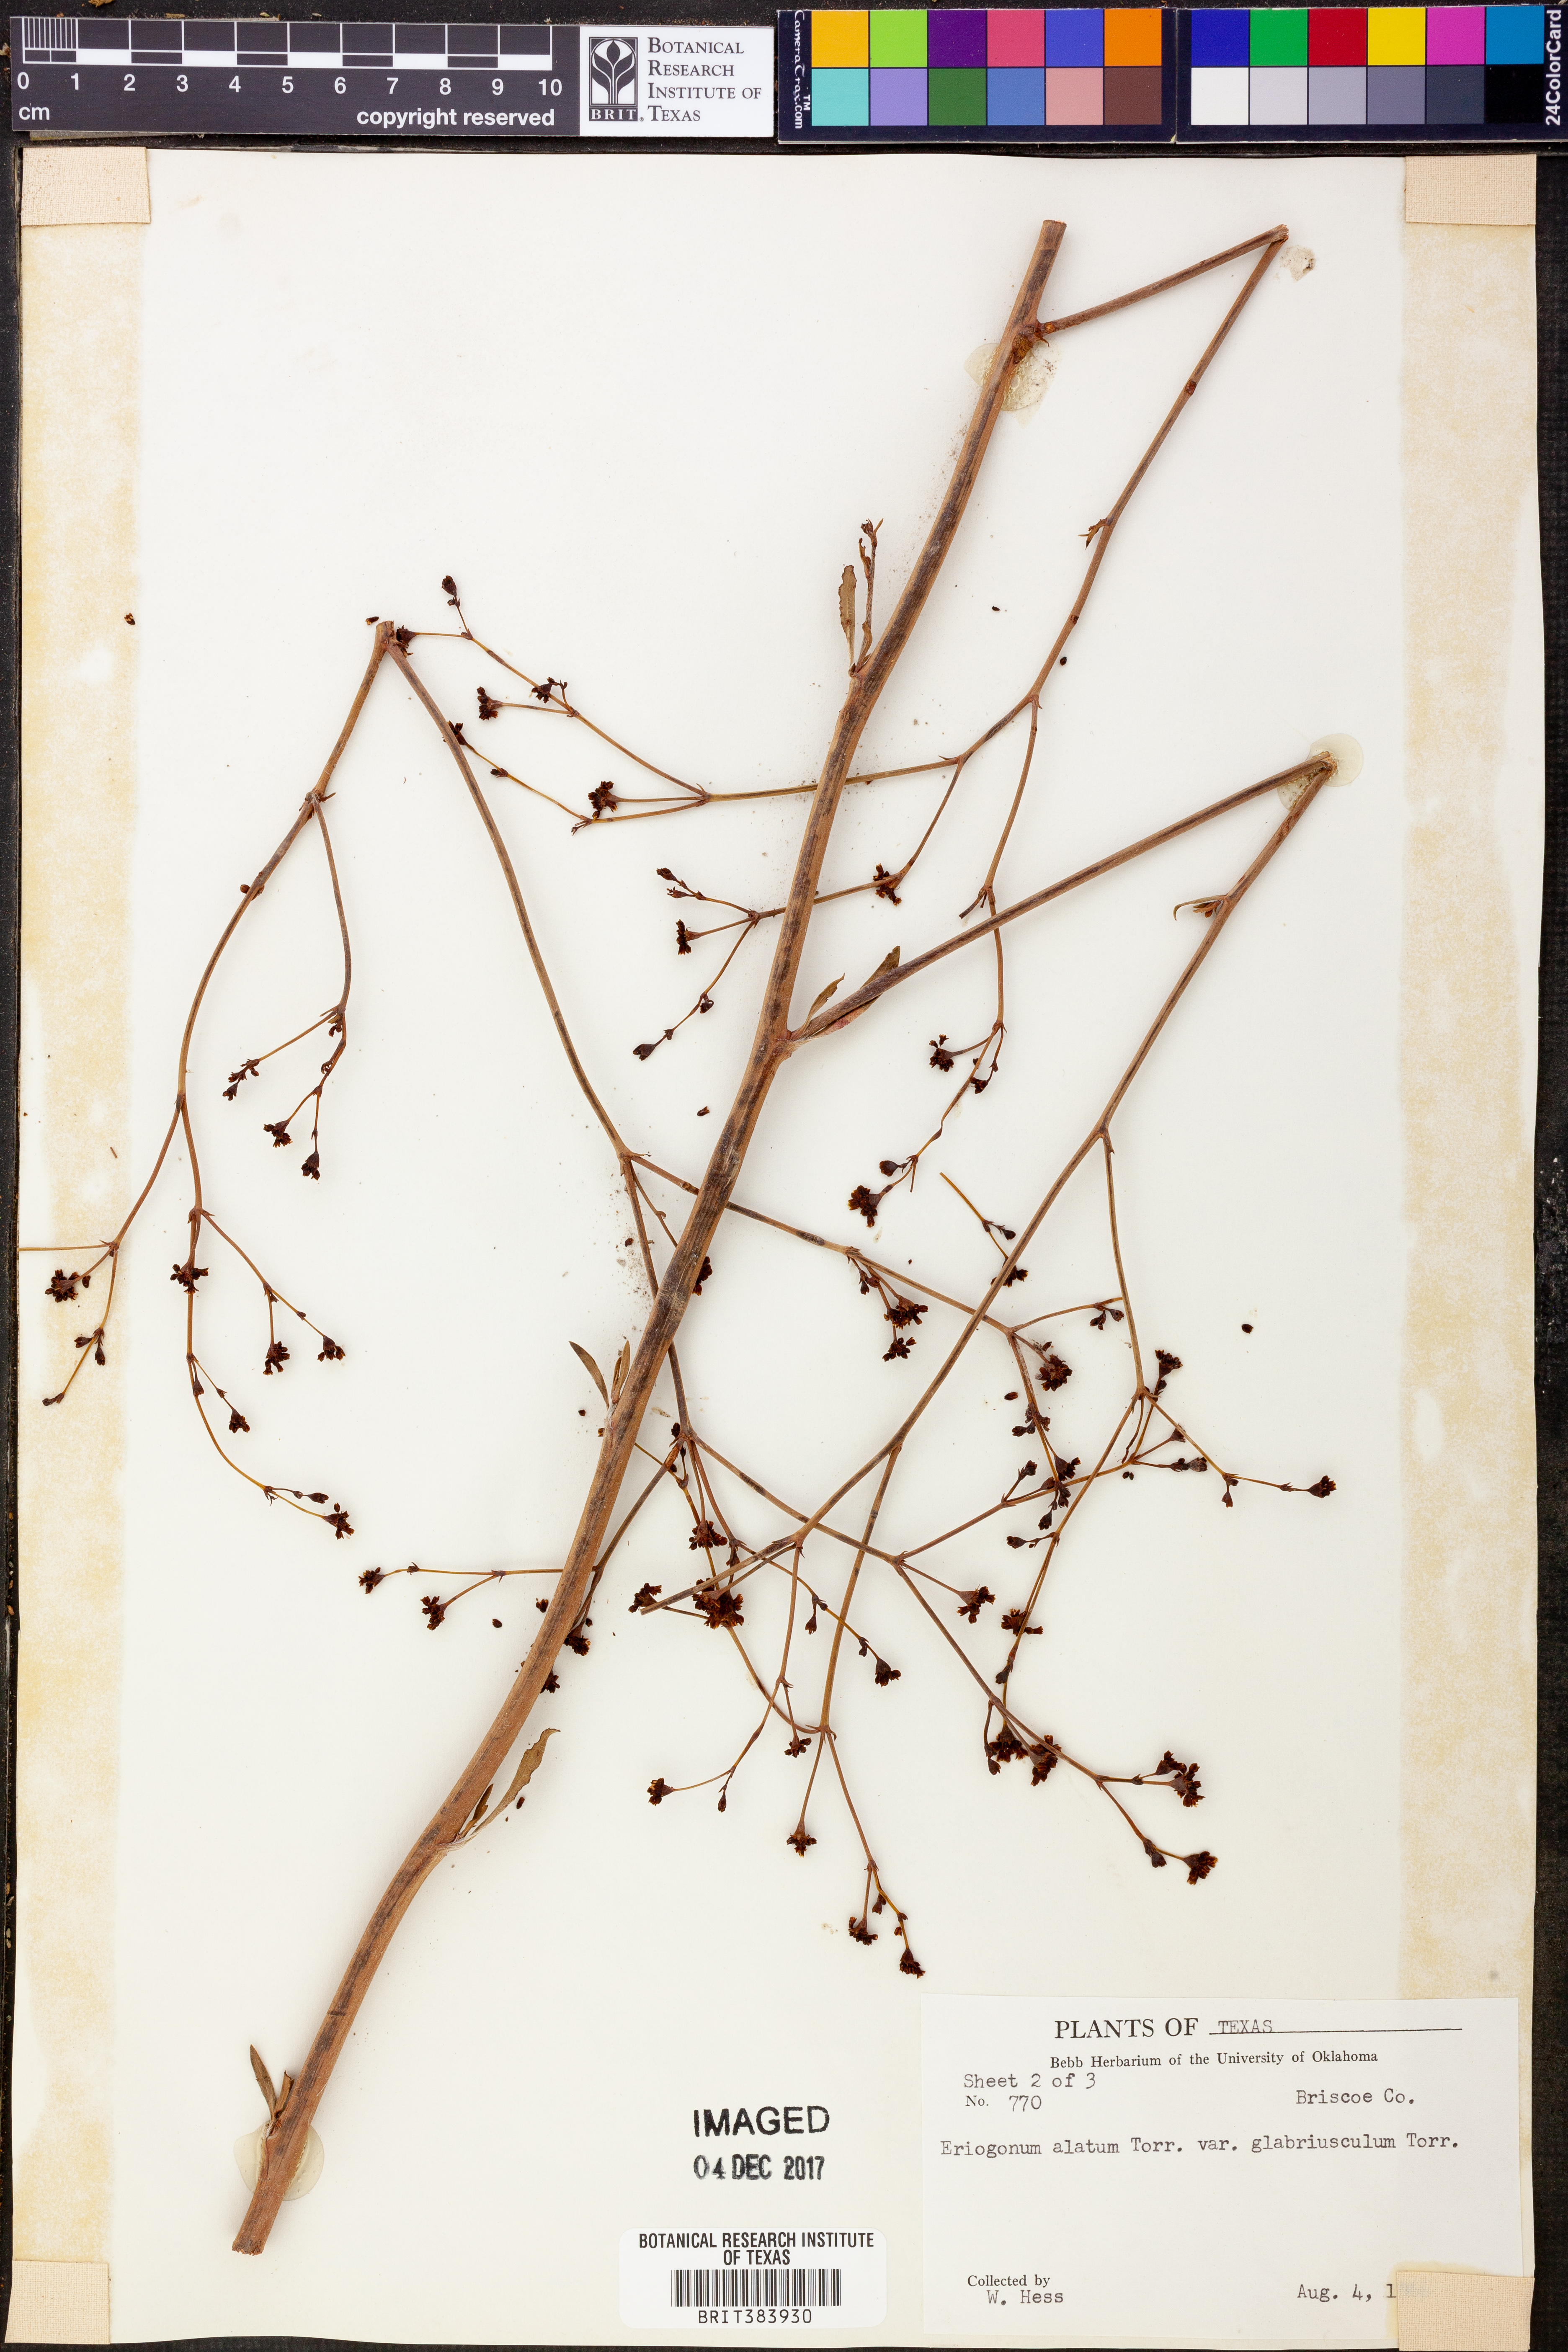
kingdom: Plantae
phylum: Tracheophyta
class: Magnoliopsida
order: Caryophyllales
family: Polygonaceae
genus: Eriogonum
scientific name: Eriogonum alatum
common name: Winged eriogonum
